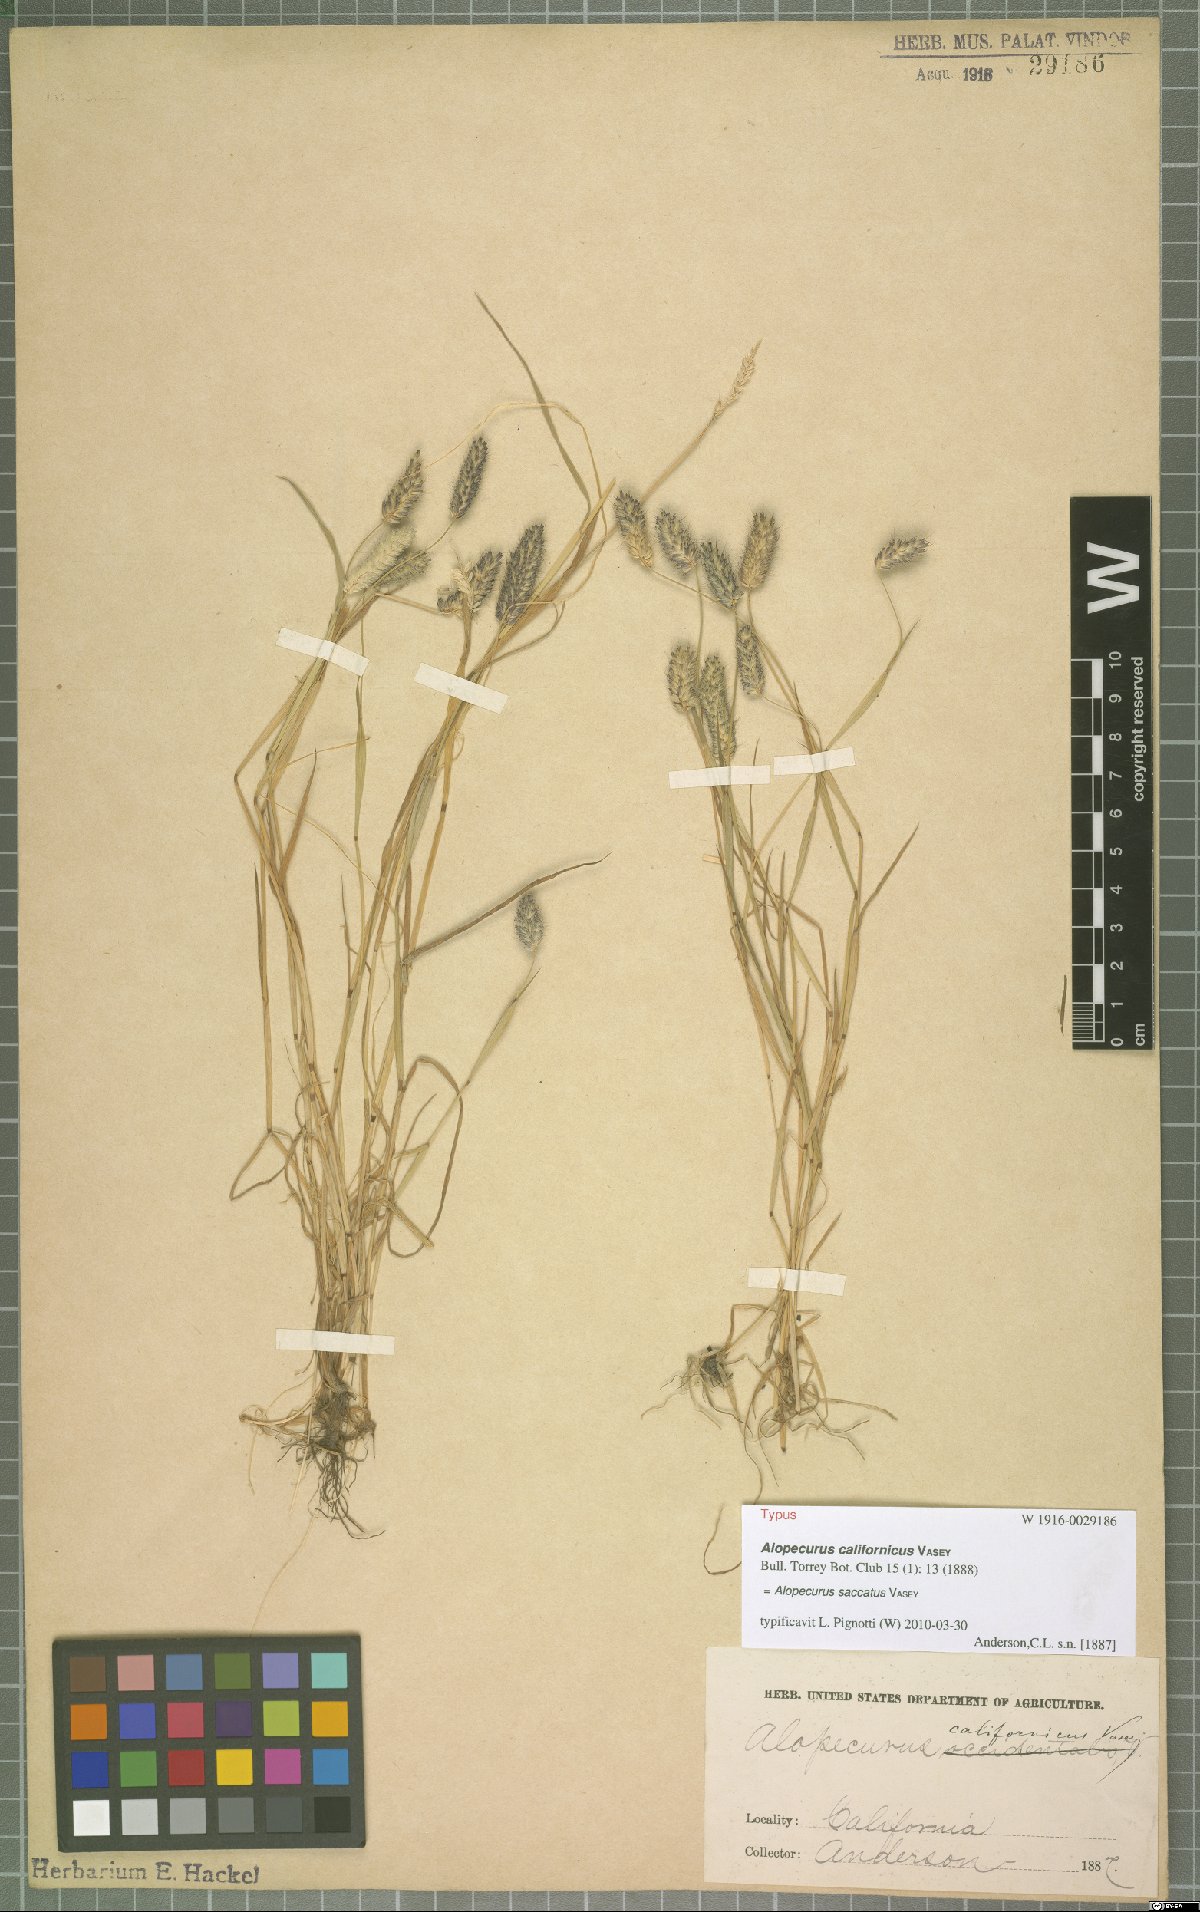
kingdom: Plantae
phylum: Tracheophyta
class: Liliopsida
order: Poales
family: Poaceae
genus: Alopecurus
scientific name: Alopecurus saccatus
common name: Pacific foxtail
